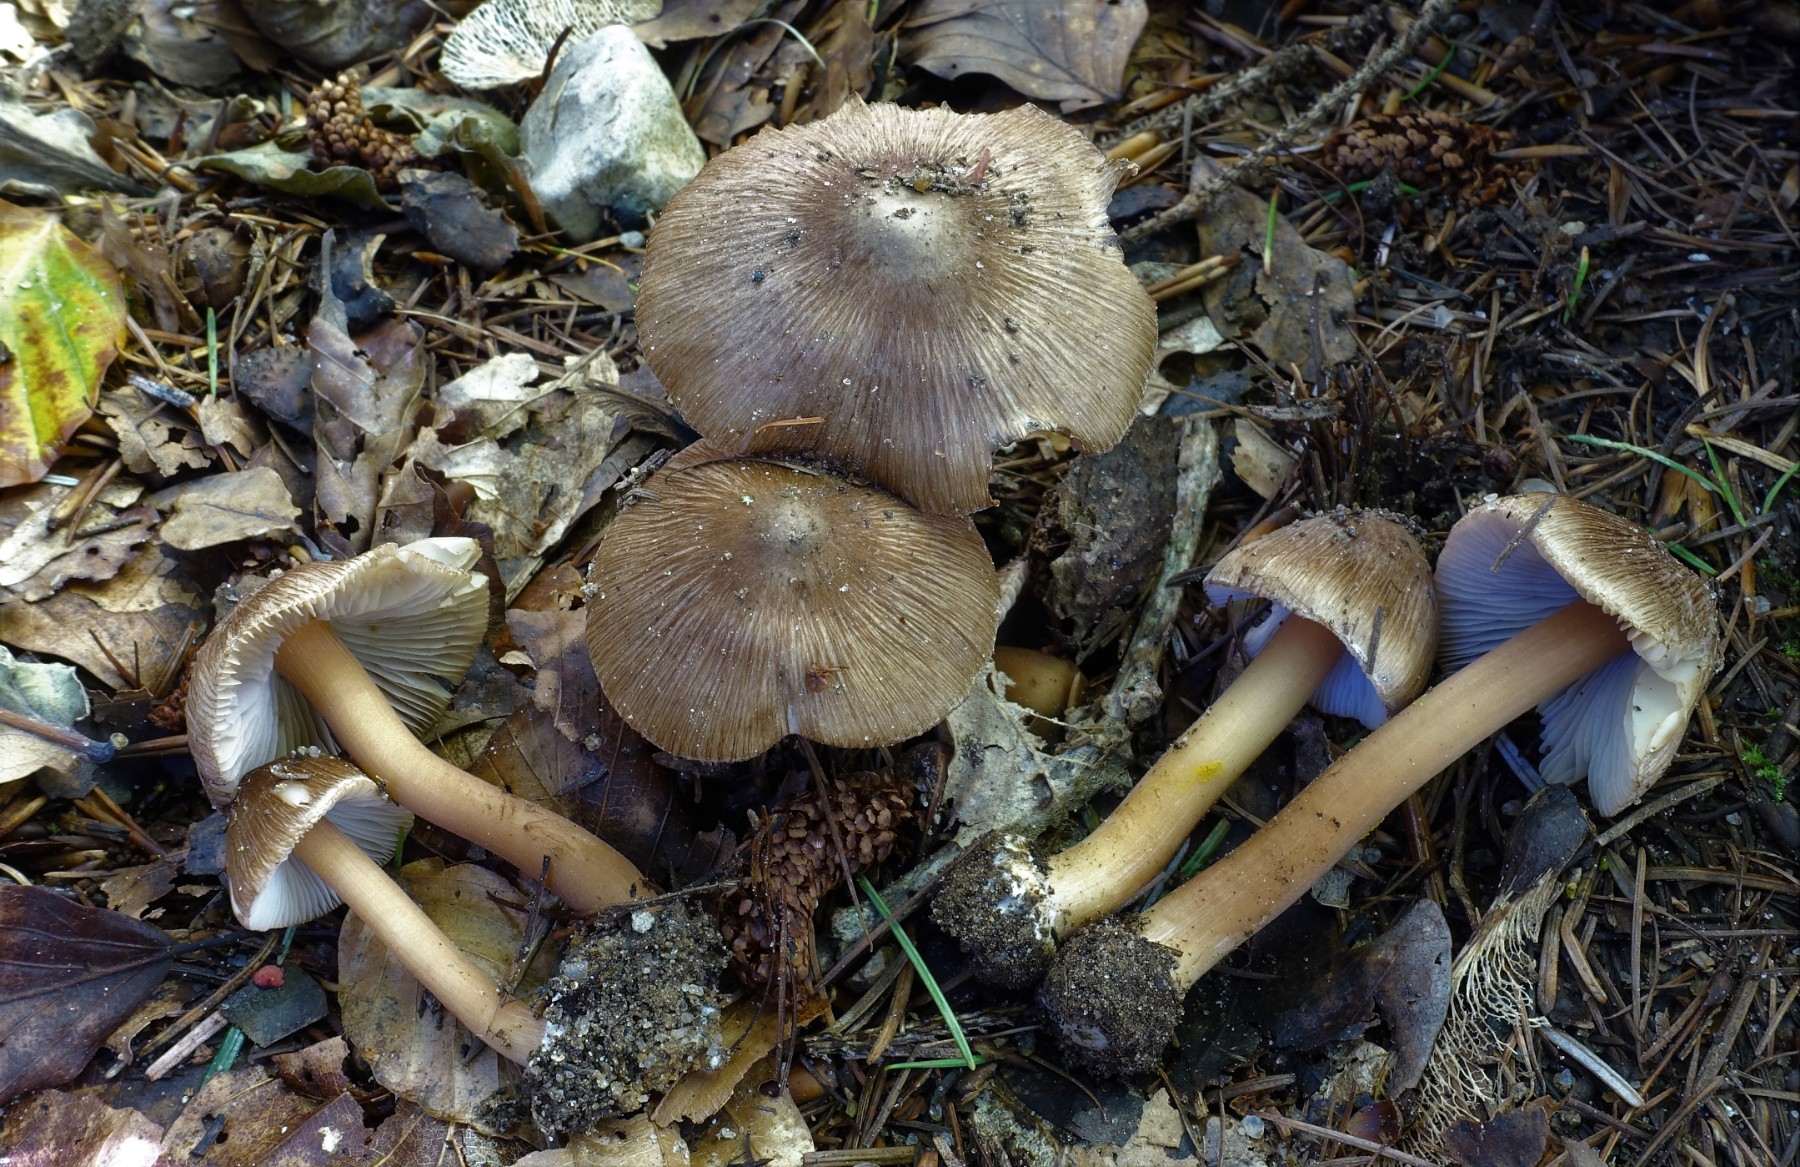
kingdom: Fungi
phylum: Basidiomycota
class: Agaricomycetes
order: Agaricales
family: Inocybaceae
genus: Inocybe
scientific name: Inocybe asterospora
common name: stjernesporet trævlhat
